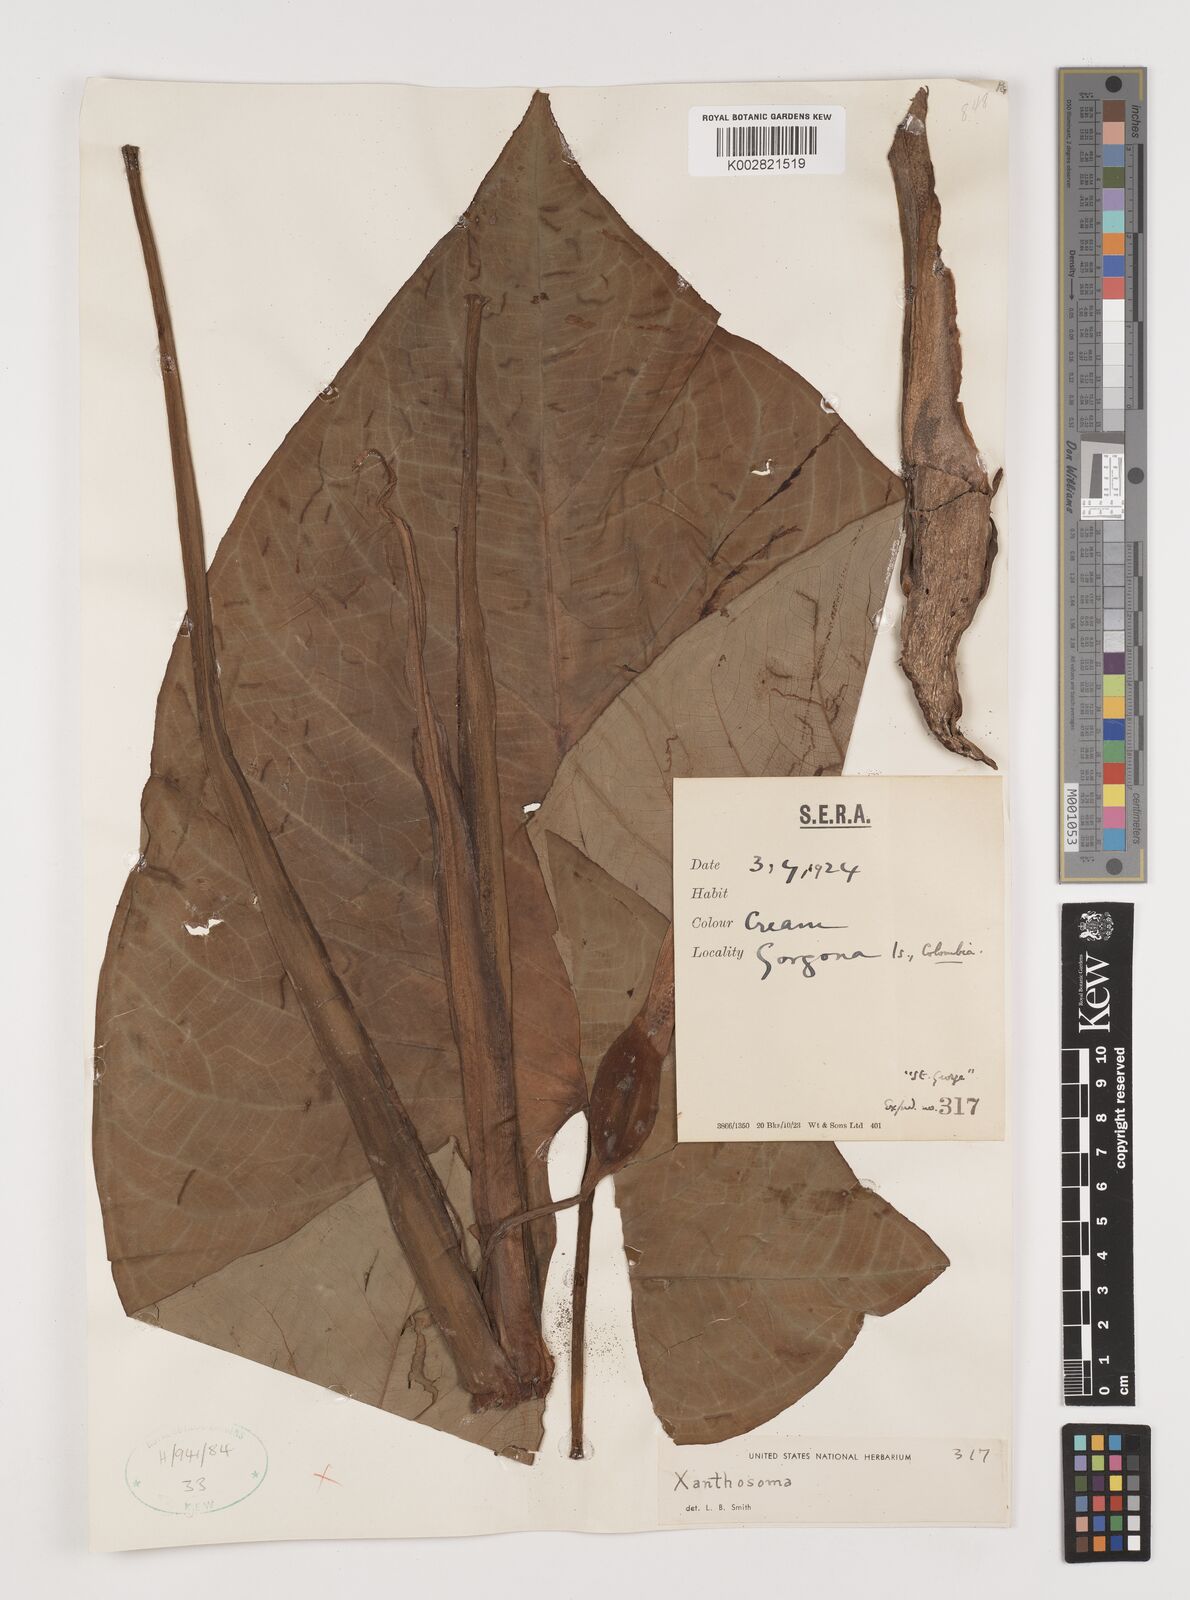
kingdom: Plantae
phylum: Tracheophyta
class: Liliopsida
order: Alismatales
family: Araceae
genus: Xanthosoma
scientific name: Xanthosoma
